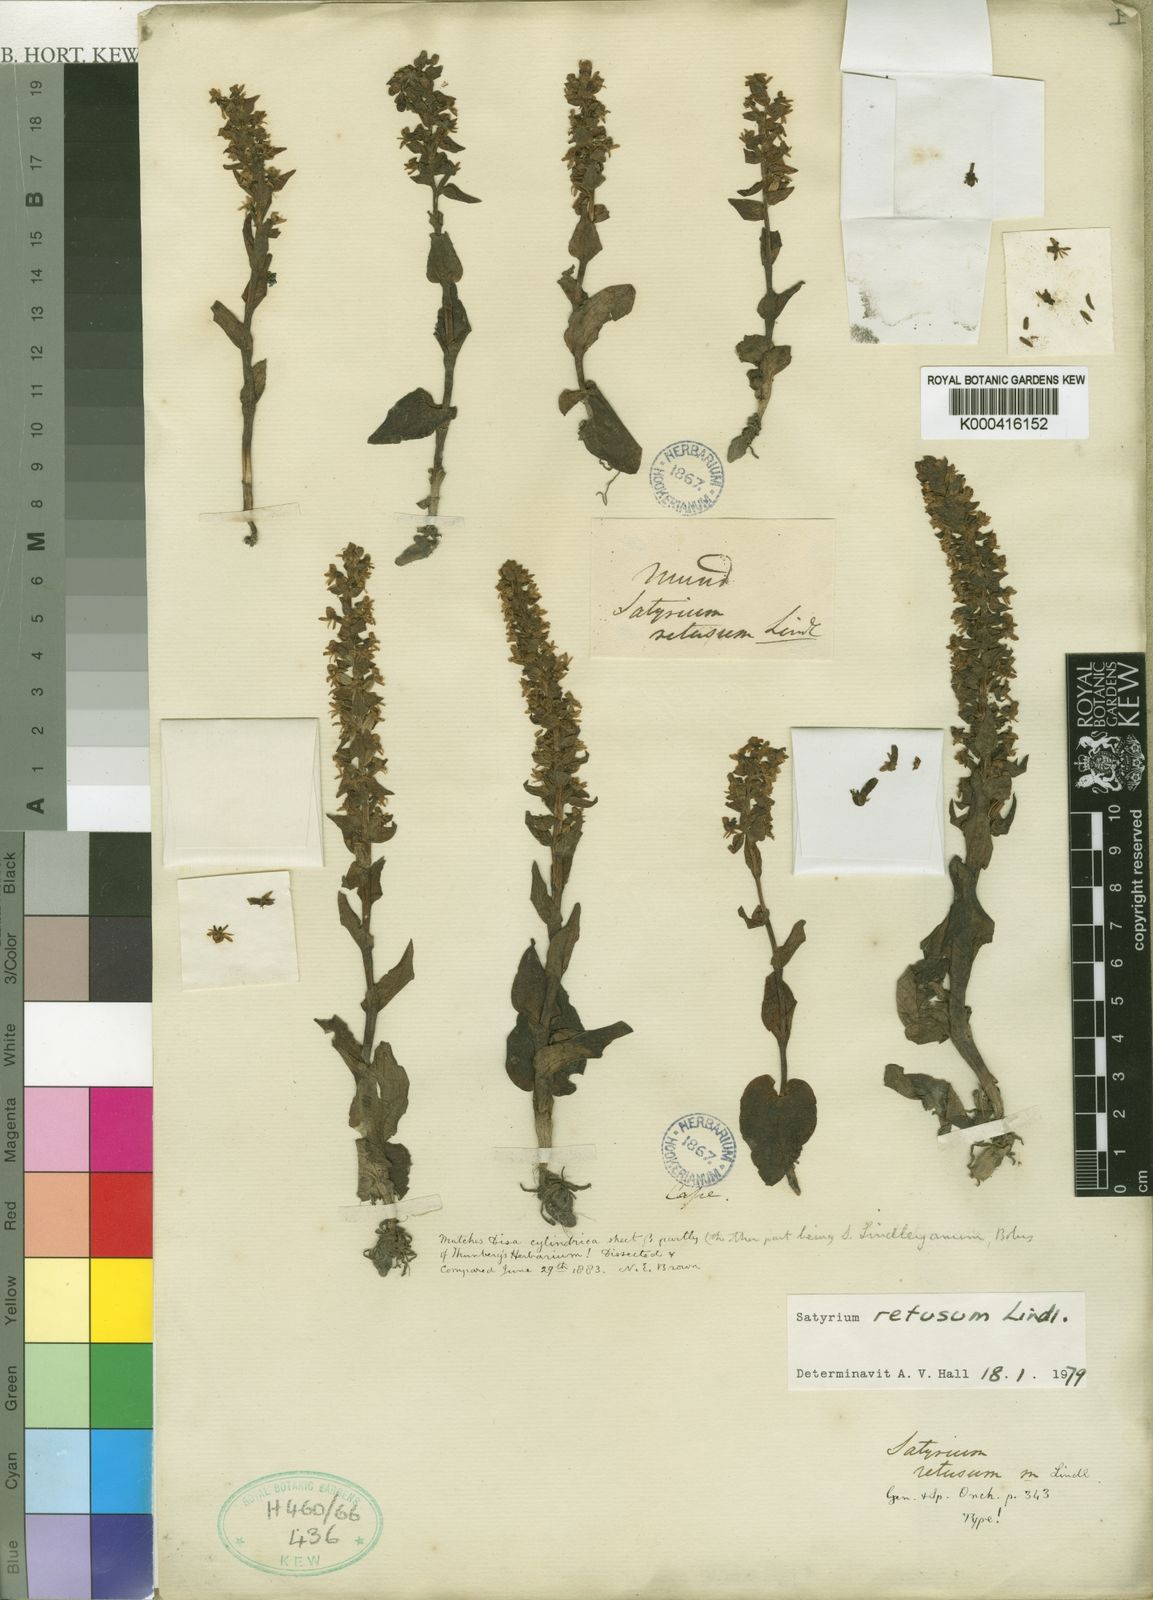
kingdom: Plantae
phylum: Tracheophyta
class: Liliopsida
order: Asparagales
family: Orchidaceae
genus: Satyrium
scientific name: Satyrium retusum
